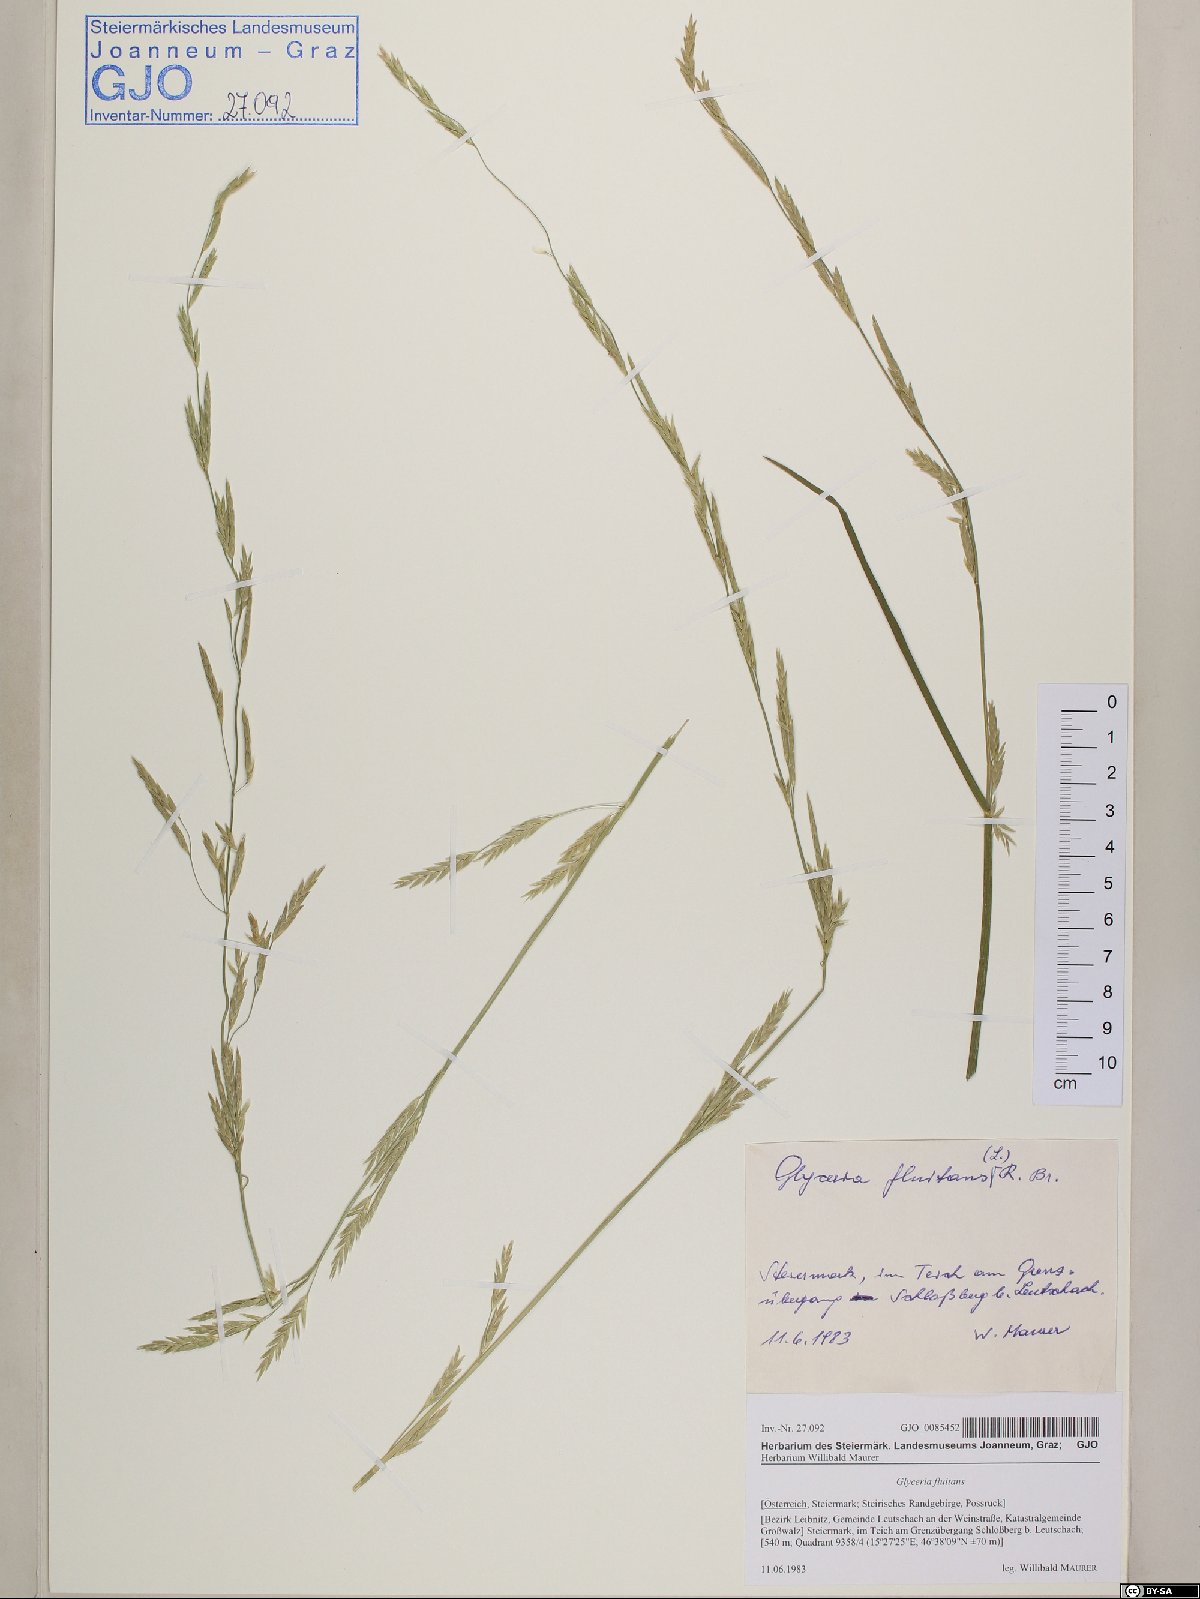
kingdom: Plantae
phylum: Tracheophyta
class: Liliopsida
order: Poales
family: Poaceae
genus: Glyceria
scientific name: Glyceria fluitans
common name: Floating sweet-grass
